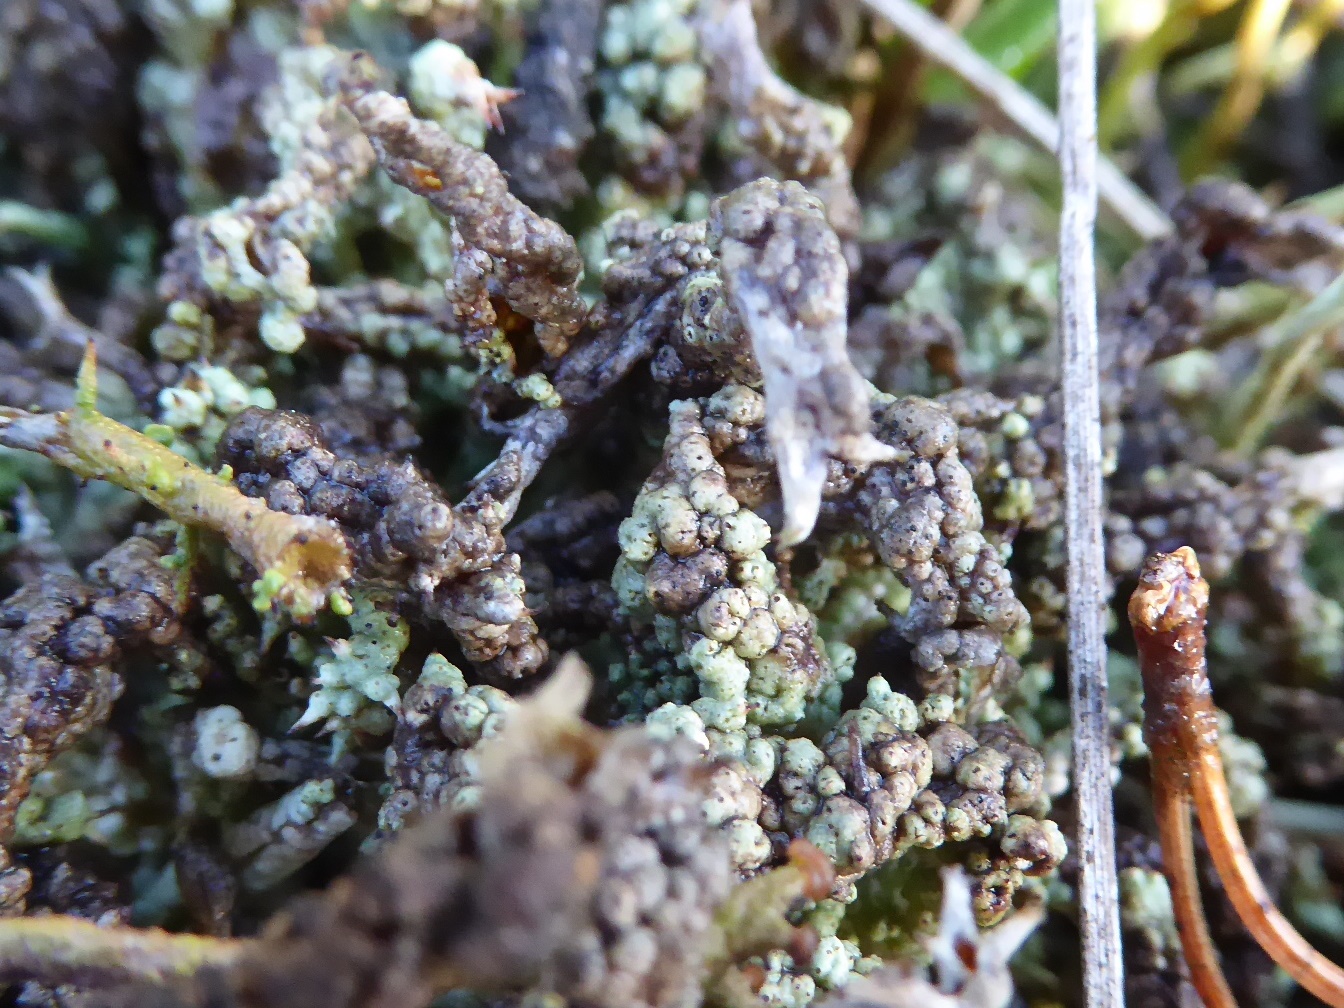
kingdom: Fungi
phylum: Ascomycota
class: Lecanoromycetes
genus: Bachmanniomyces
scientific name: Bachmanniomyces uncialicola
